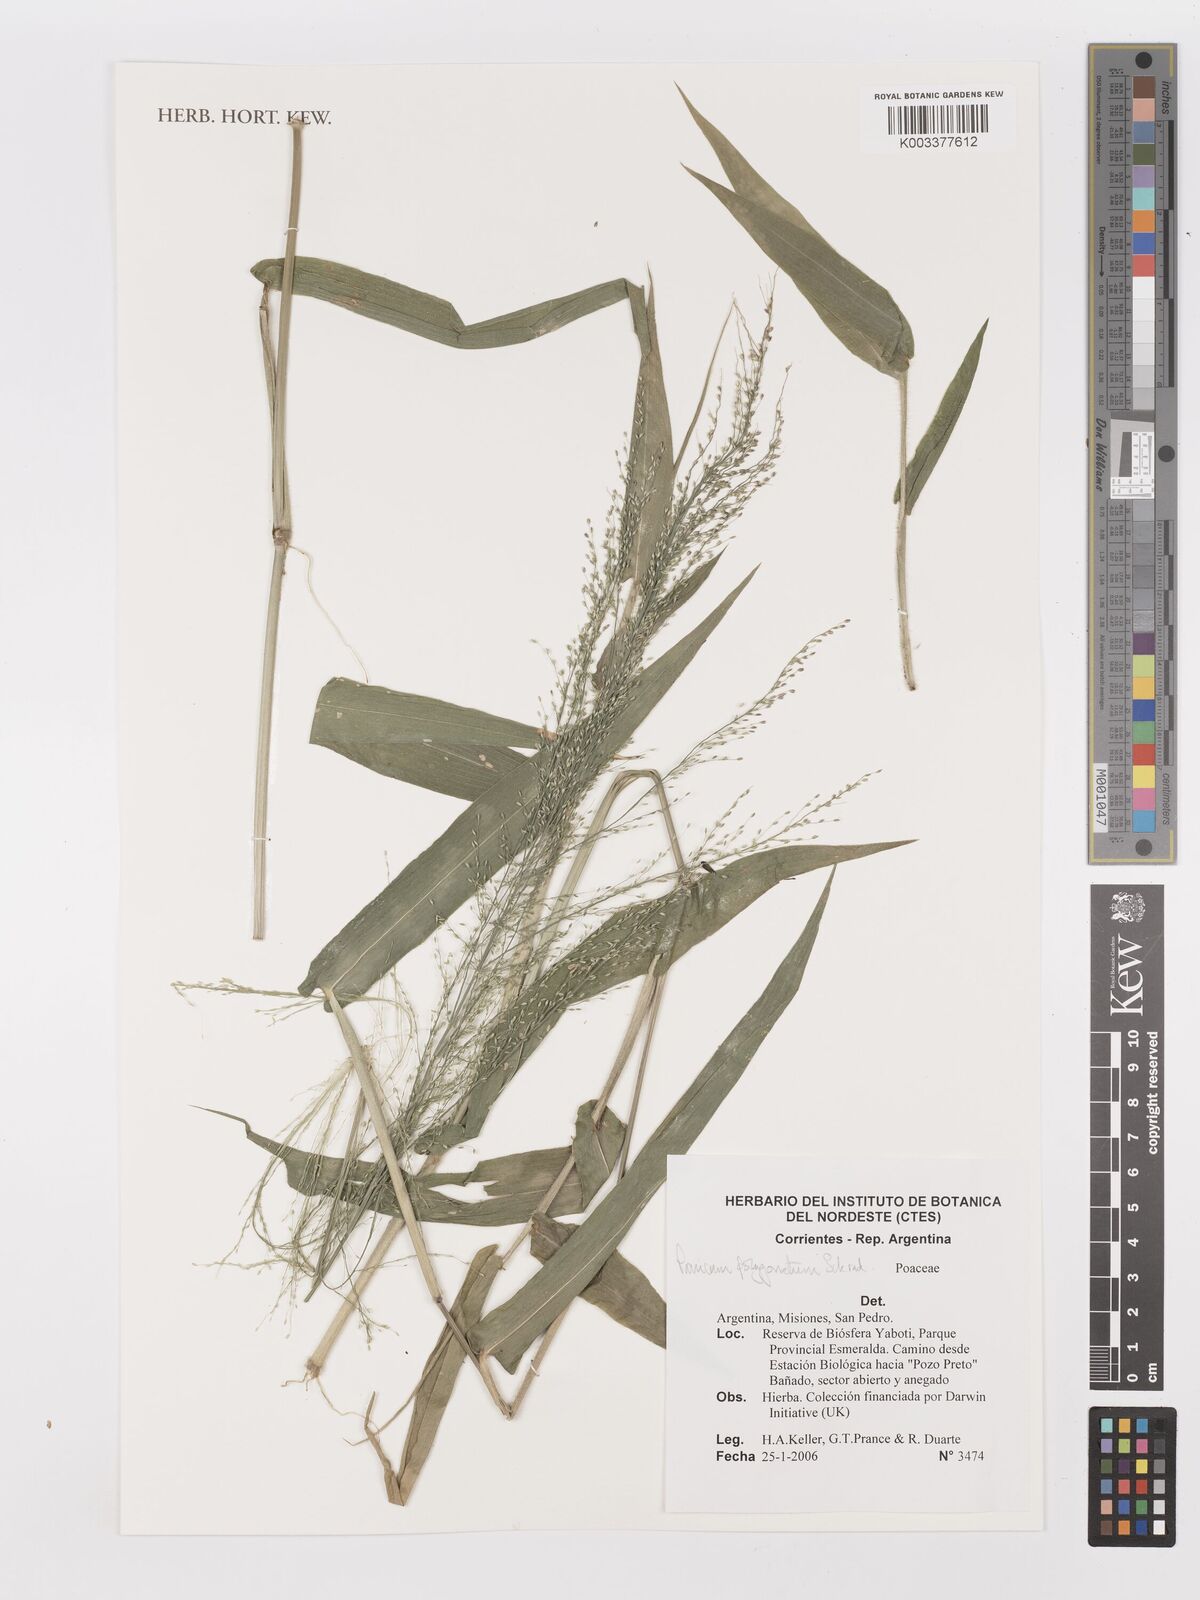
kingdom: Plantae
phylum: Tracheophyta
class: Liliopsida
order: Poales
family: Poaceae
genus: Rugoloa
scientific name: Rugoloa polygonata
